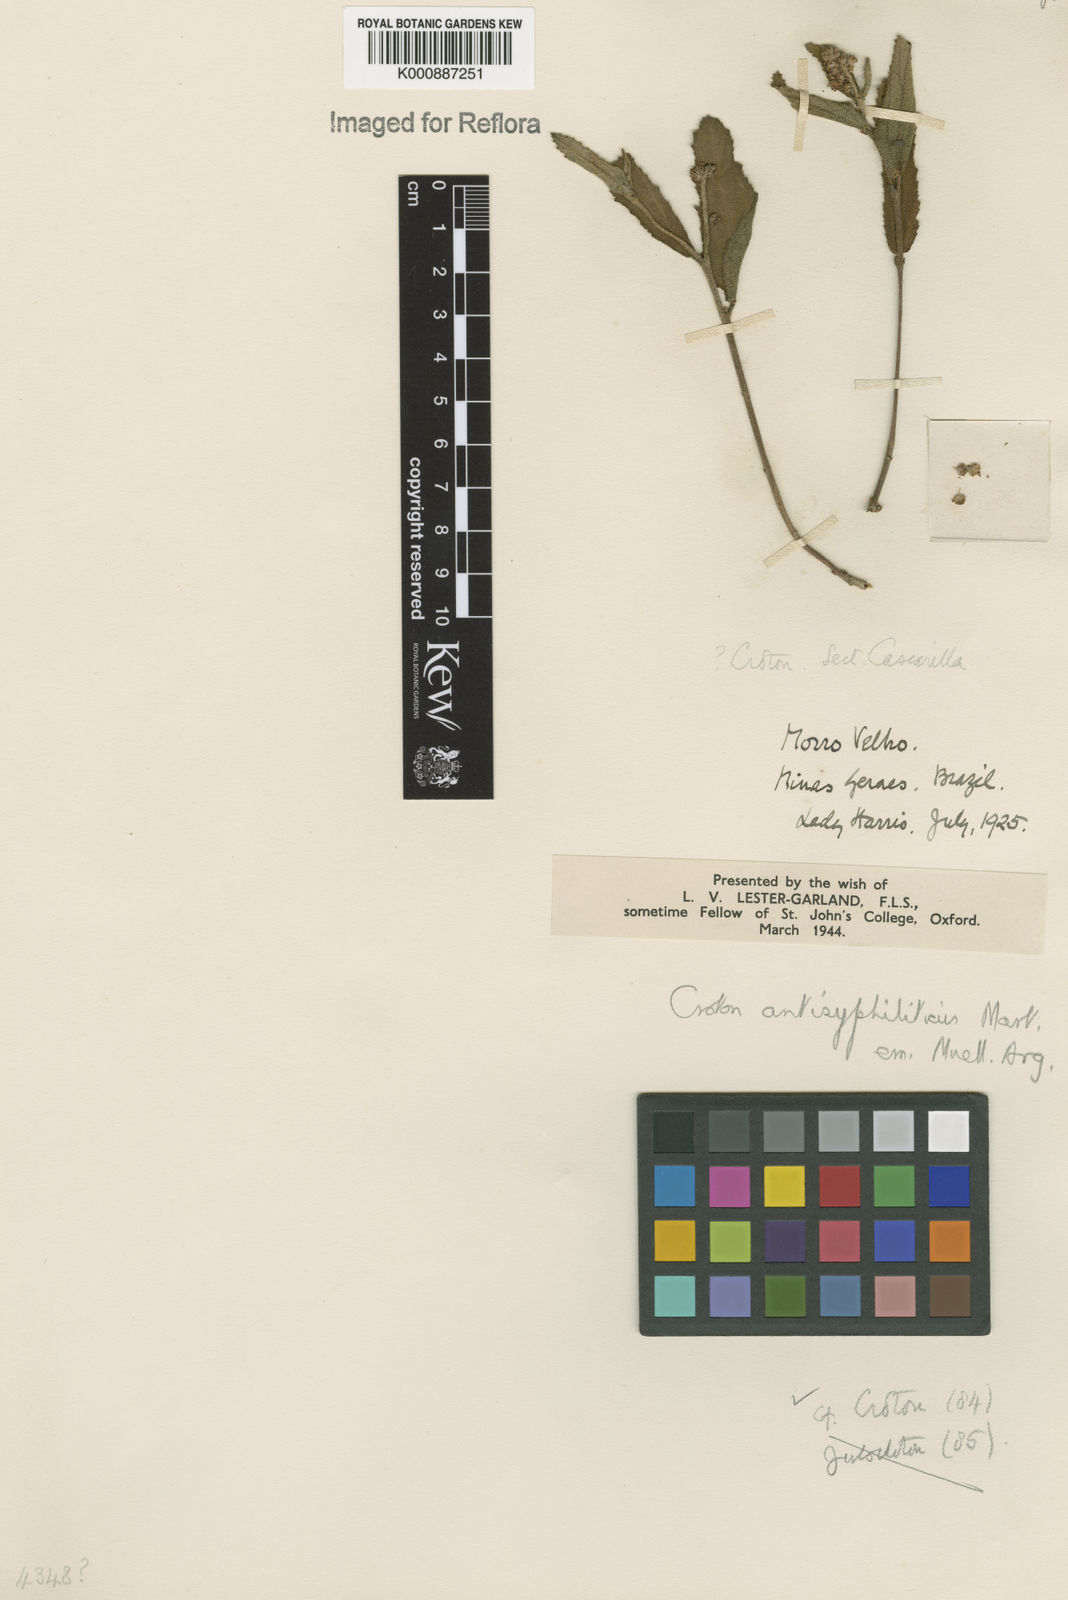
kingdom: Plantae
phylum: Tracheophyta
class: Magnoliopsida
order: Malpighiales
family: Euphorbiaceae
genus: Croton
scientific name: Croton antisyphiliticus
